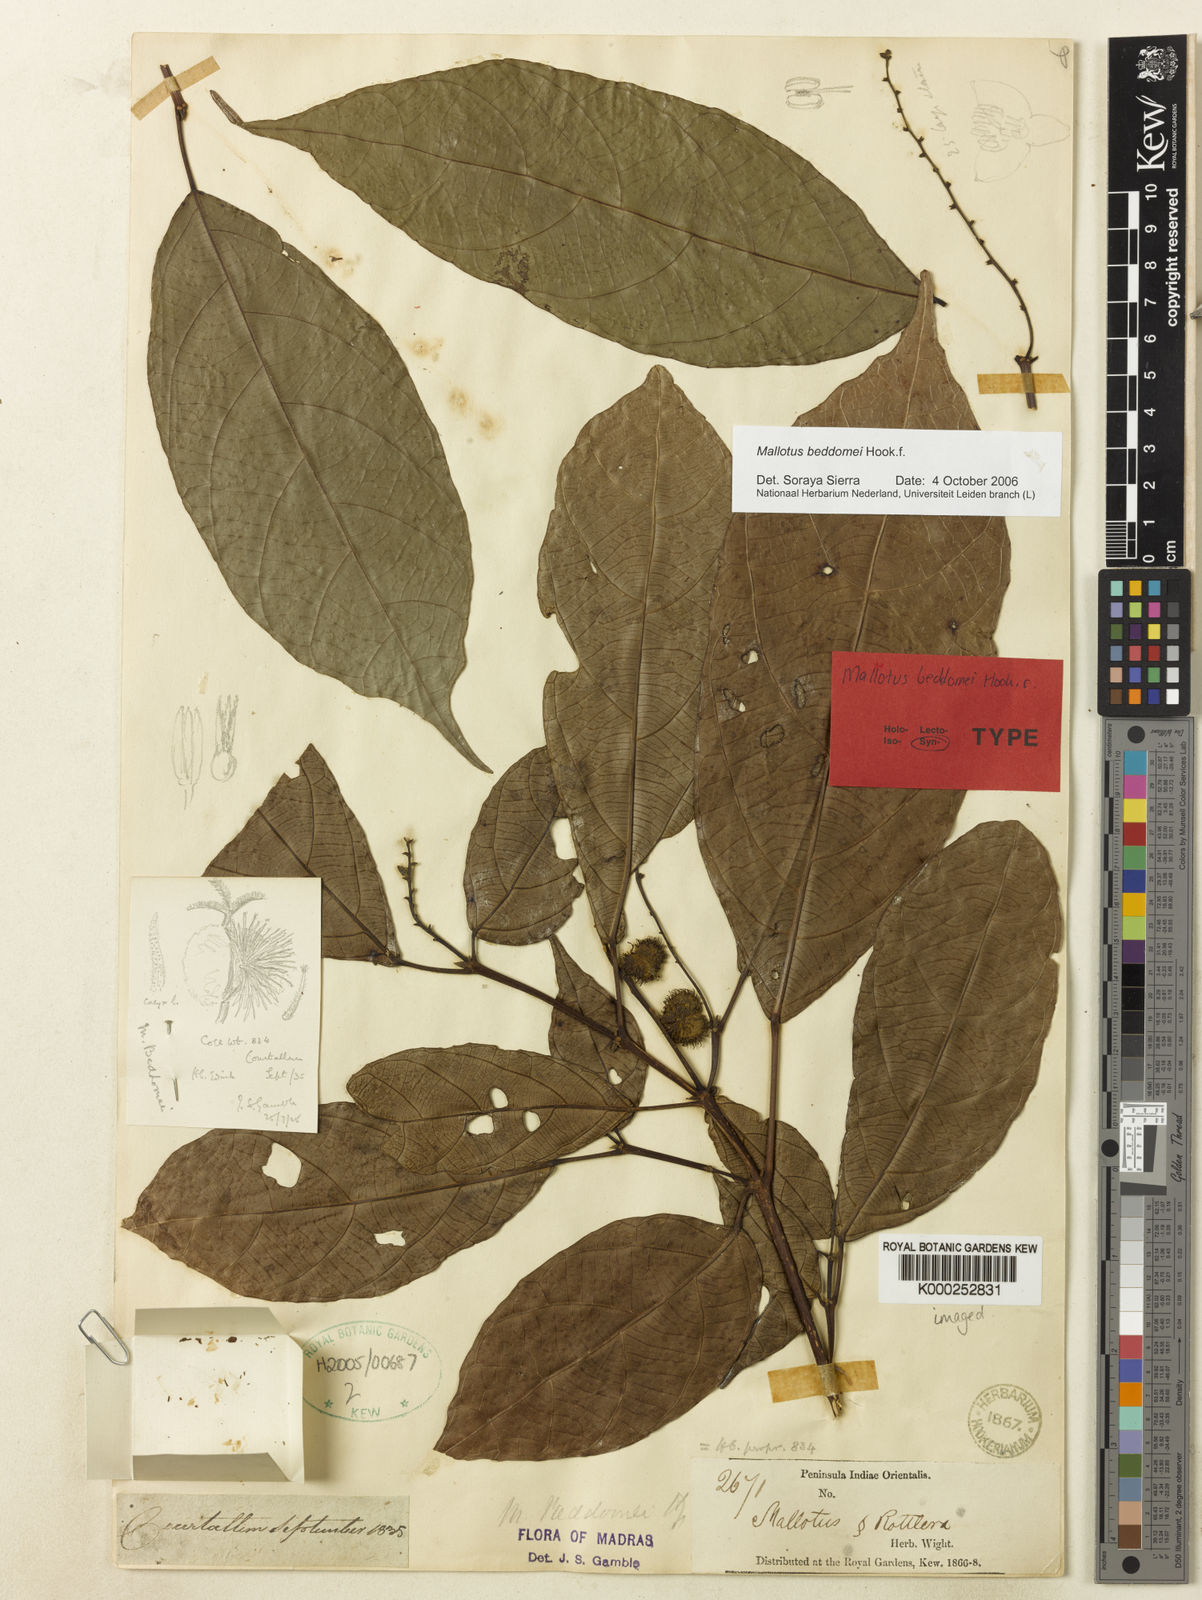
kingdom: Plantae
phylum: Tracheophyta
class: Magnoliopsida
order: Malpighiales
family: Euphorbiaceae
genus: Mallotus
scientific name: Mallotus resinosus
